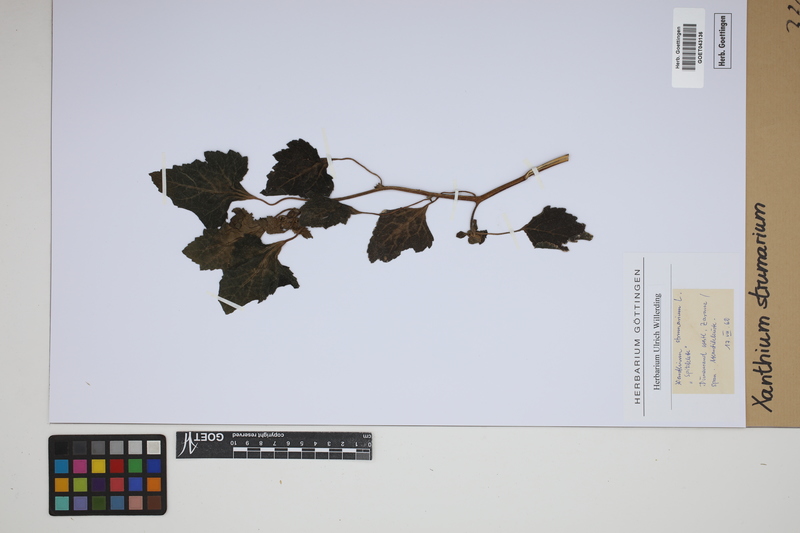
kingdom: Plantae
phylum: Tracheophyta
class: Magnoliopsida
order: Asterales
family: Asteraceae
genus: Xanthium
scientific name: Xanthium strumarium
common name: Rough cocklebur
